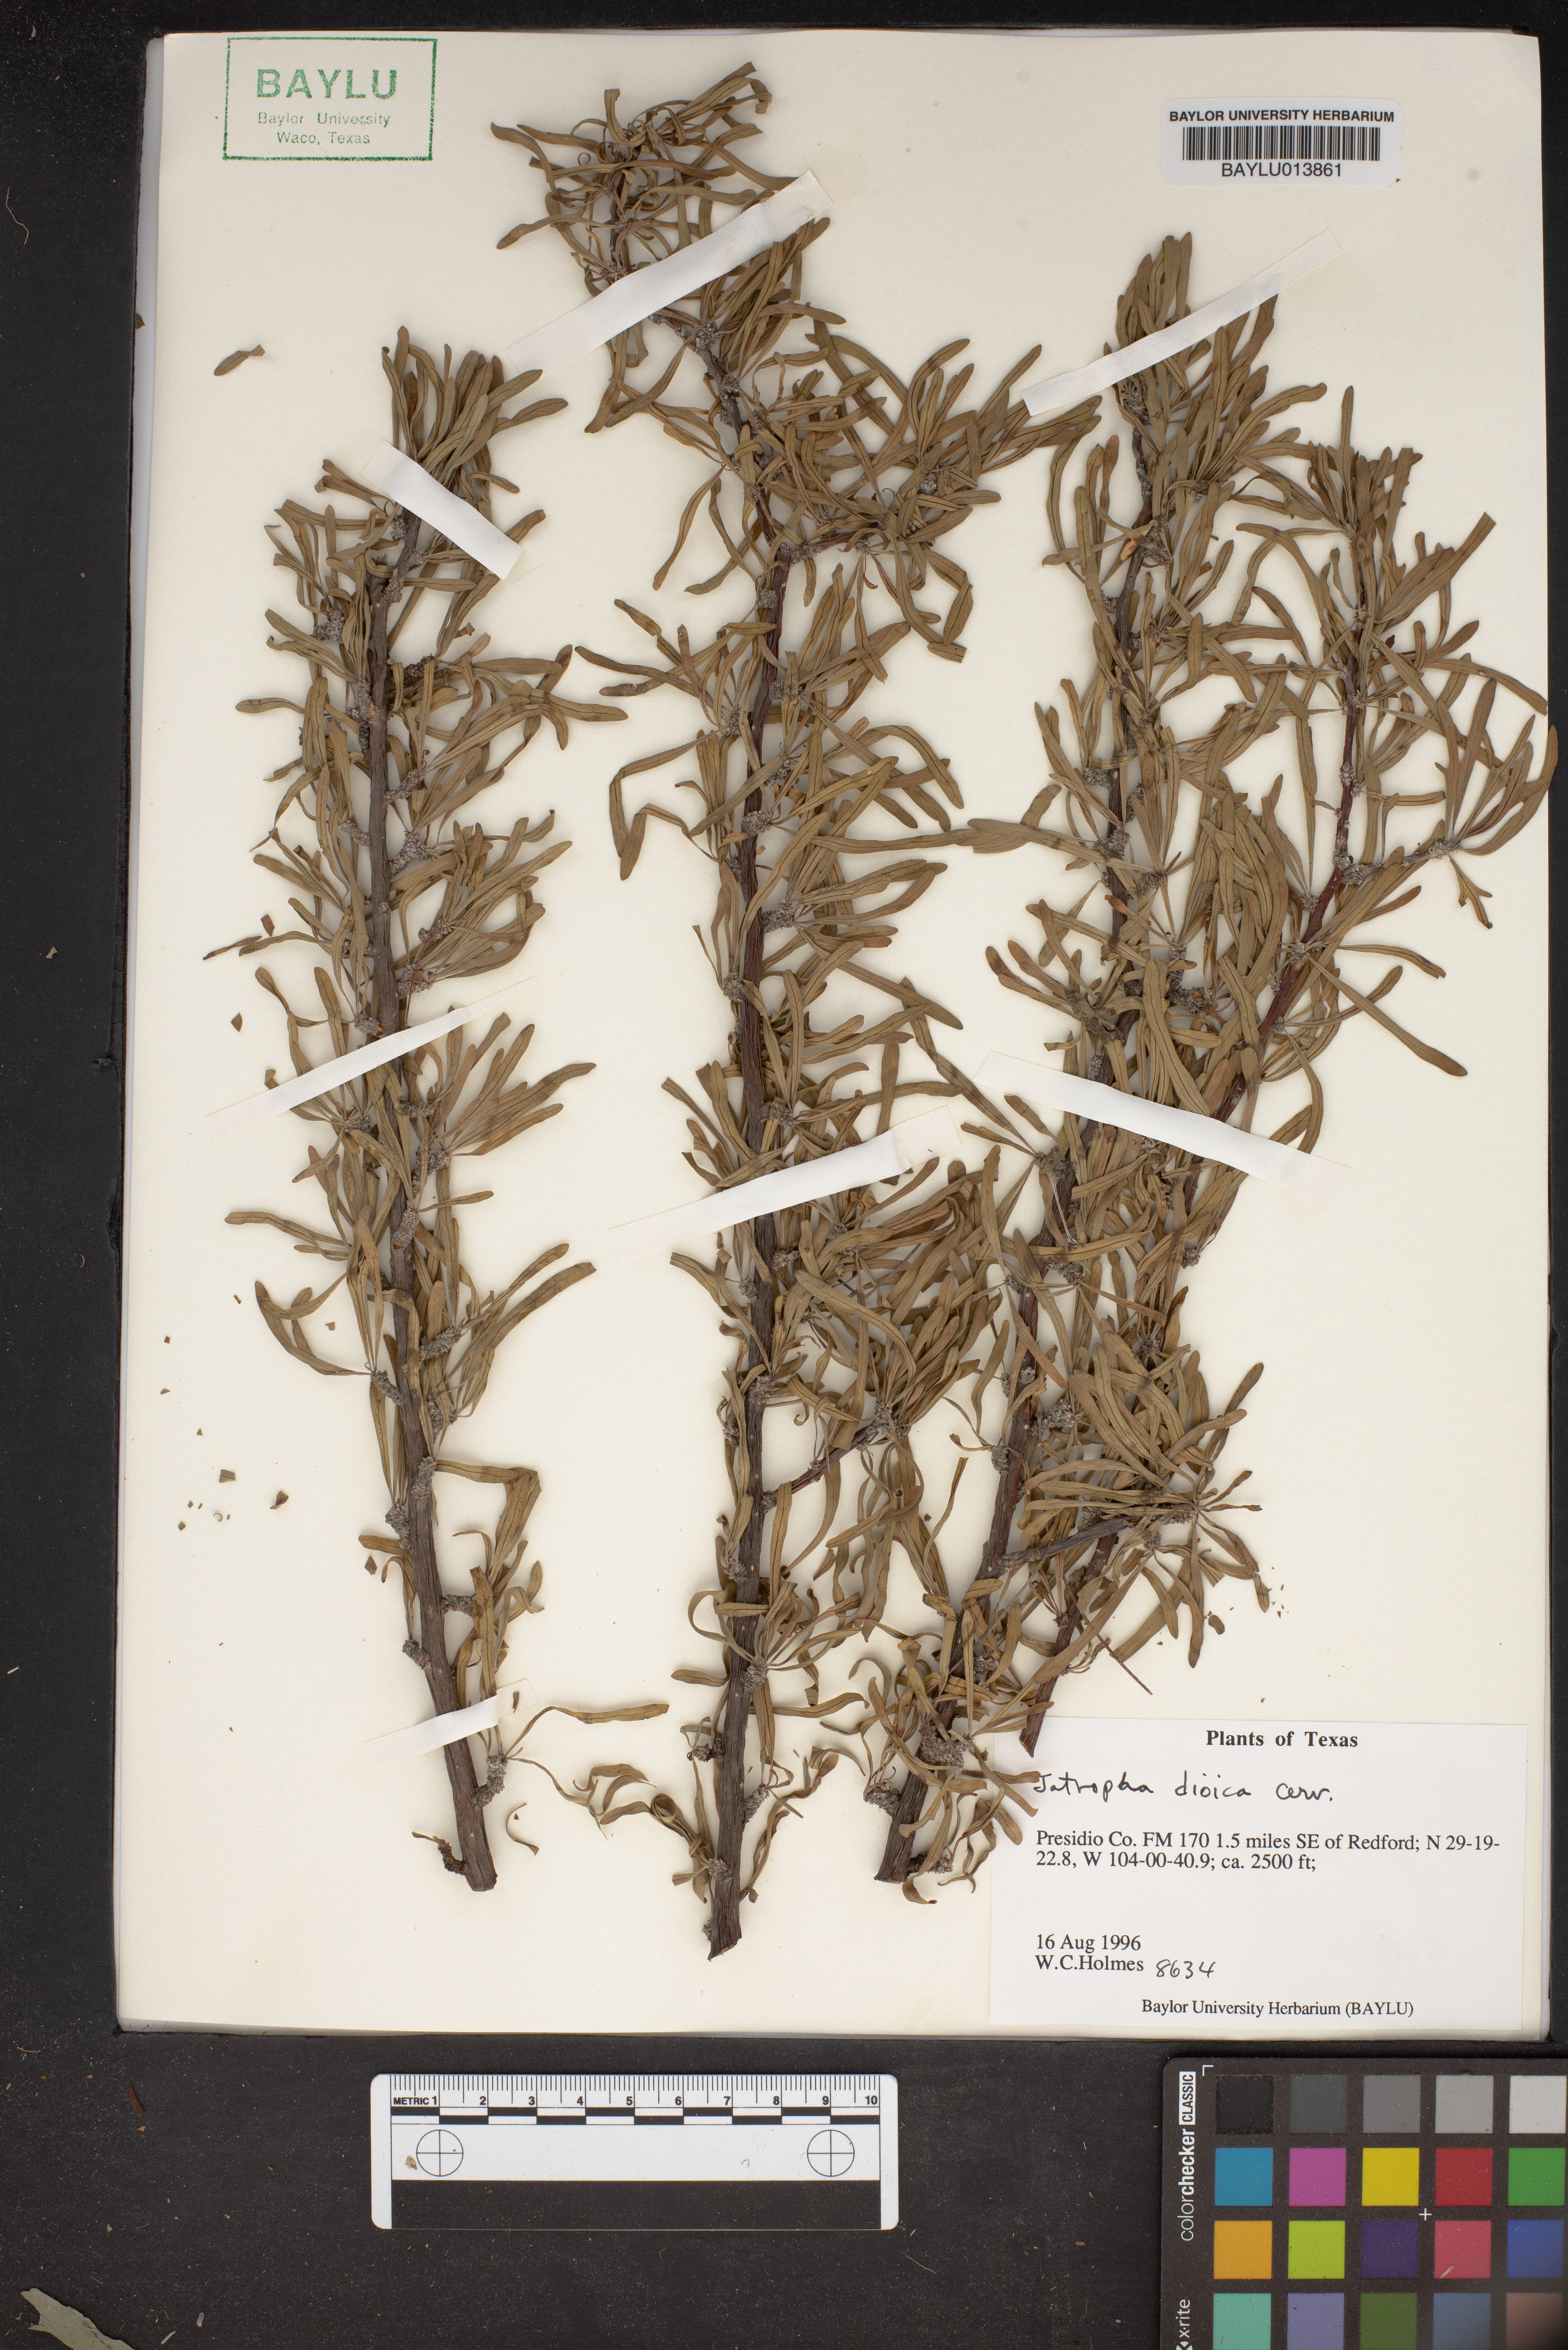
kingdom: Plantae
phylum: Tracheophyta
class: Magnoliopsida
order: Malpighiales
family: Euphorbiaceae
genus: Jatropha
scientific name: Jatropha dioica
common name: Leatherstem
